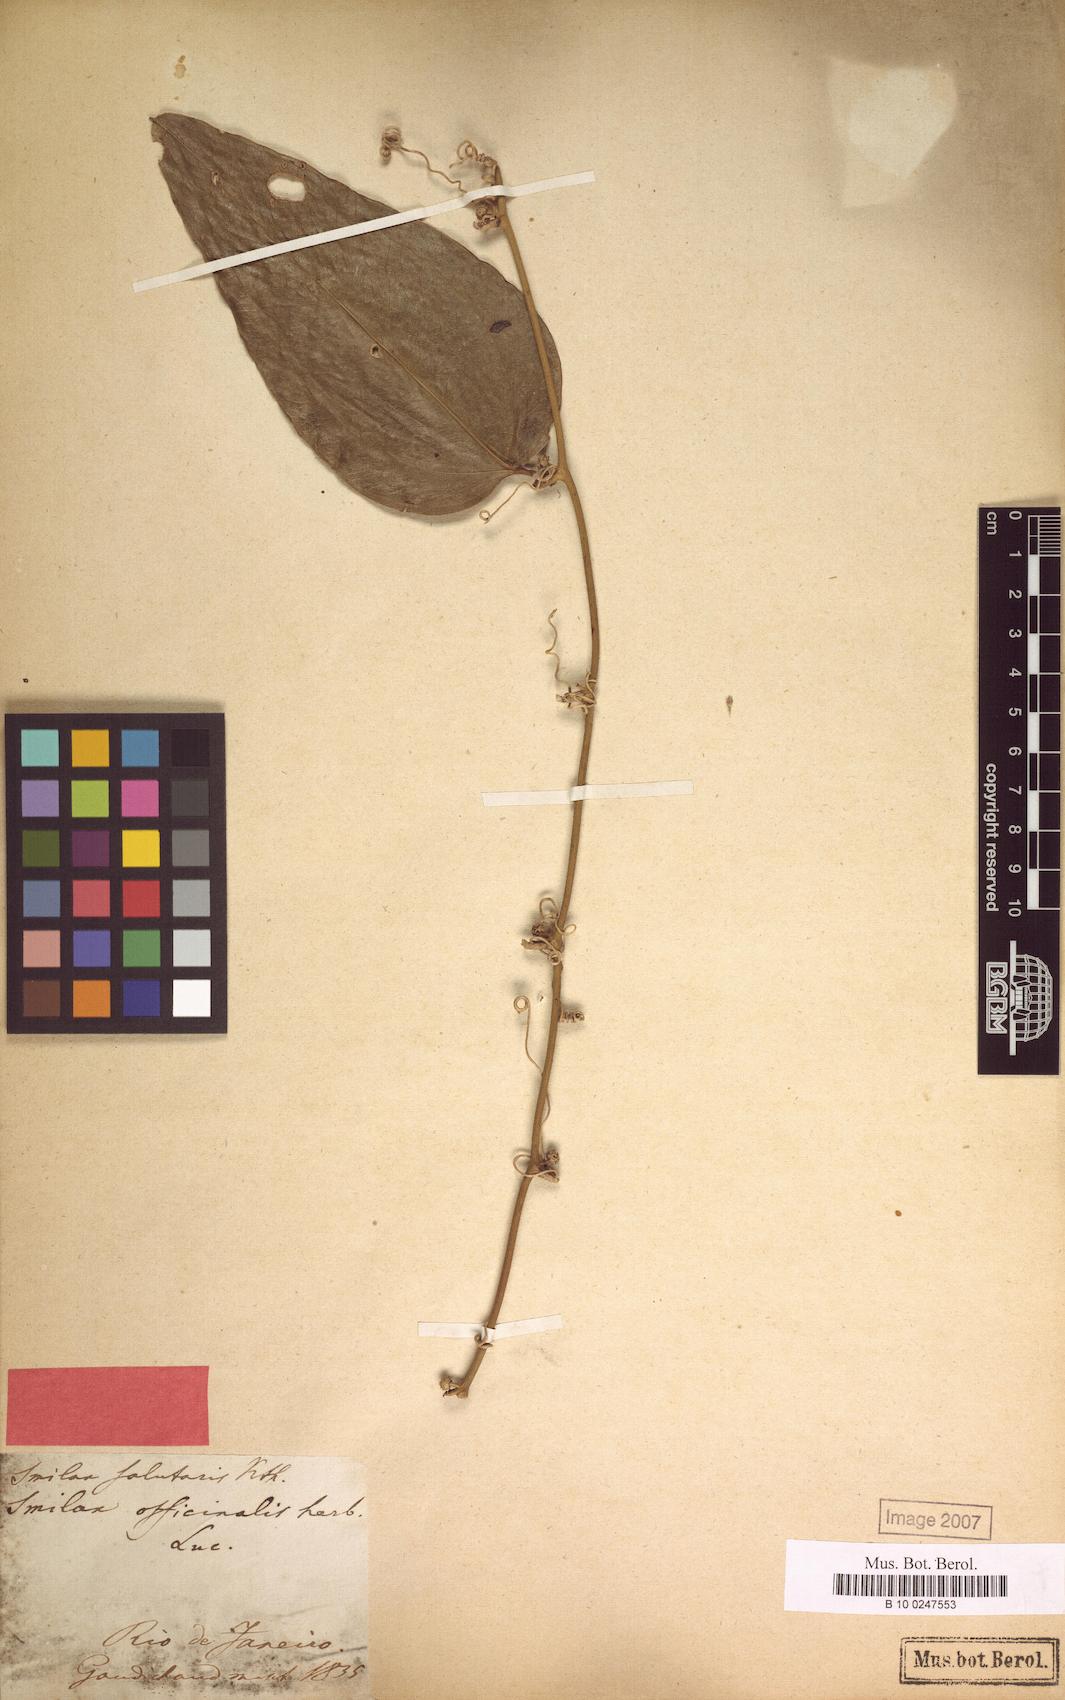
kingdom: Plantae
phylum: Tracheophyta
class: Liliopsida
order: Liliales
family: Smilacaceae
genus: Smilax
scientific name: Smilax subsessiliflora
